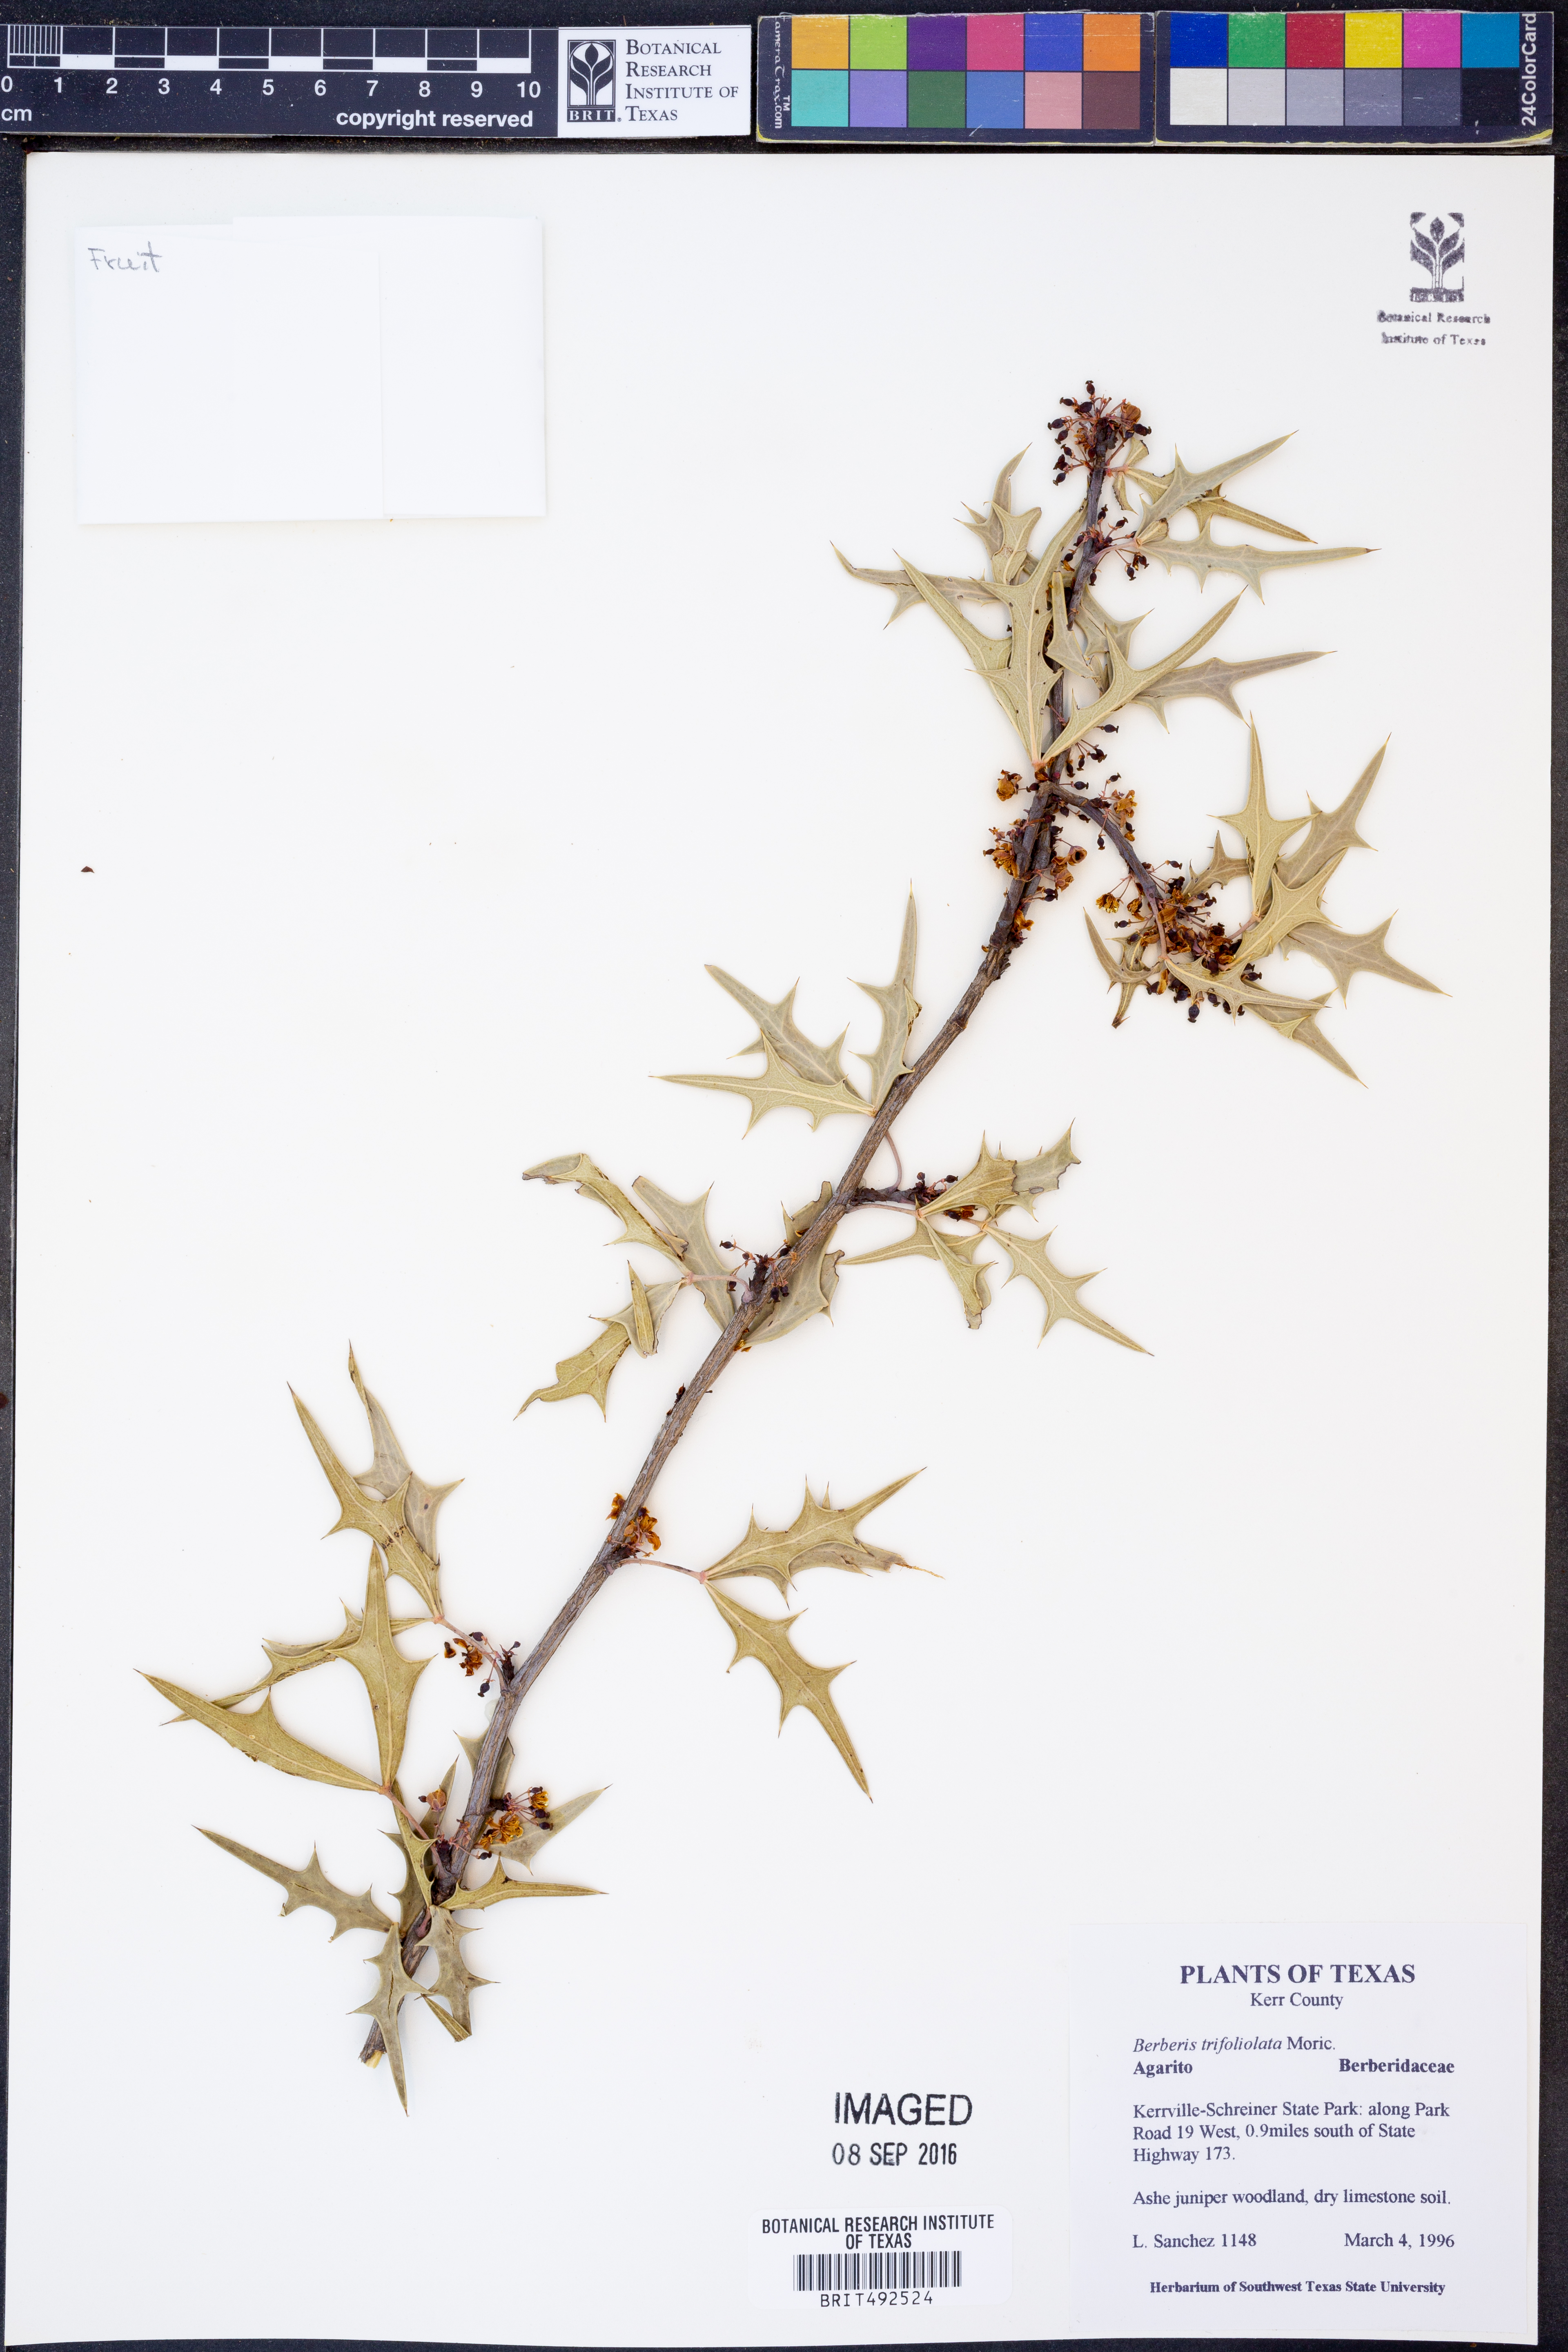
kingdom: Plantae
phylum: Tracheophyta
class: Magnoliopsida
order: Ranunculales
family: Berberidaceae
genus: Alloberberis
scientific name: Alloberberis trifoliolata
